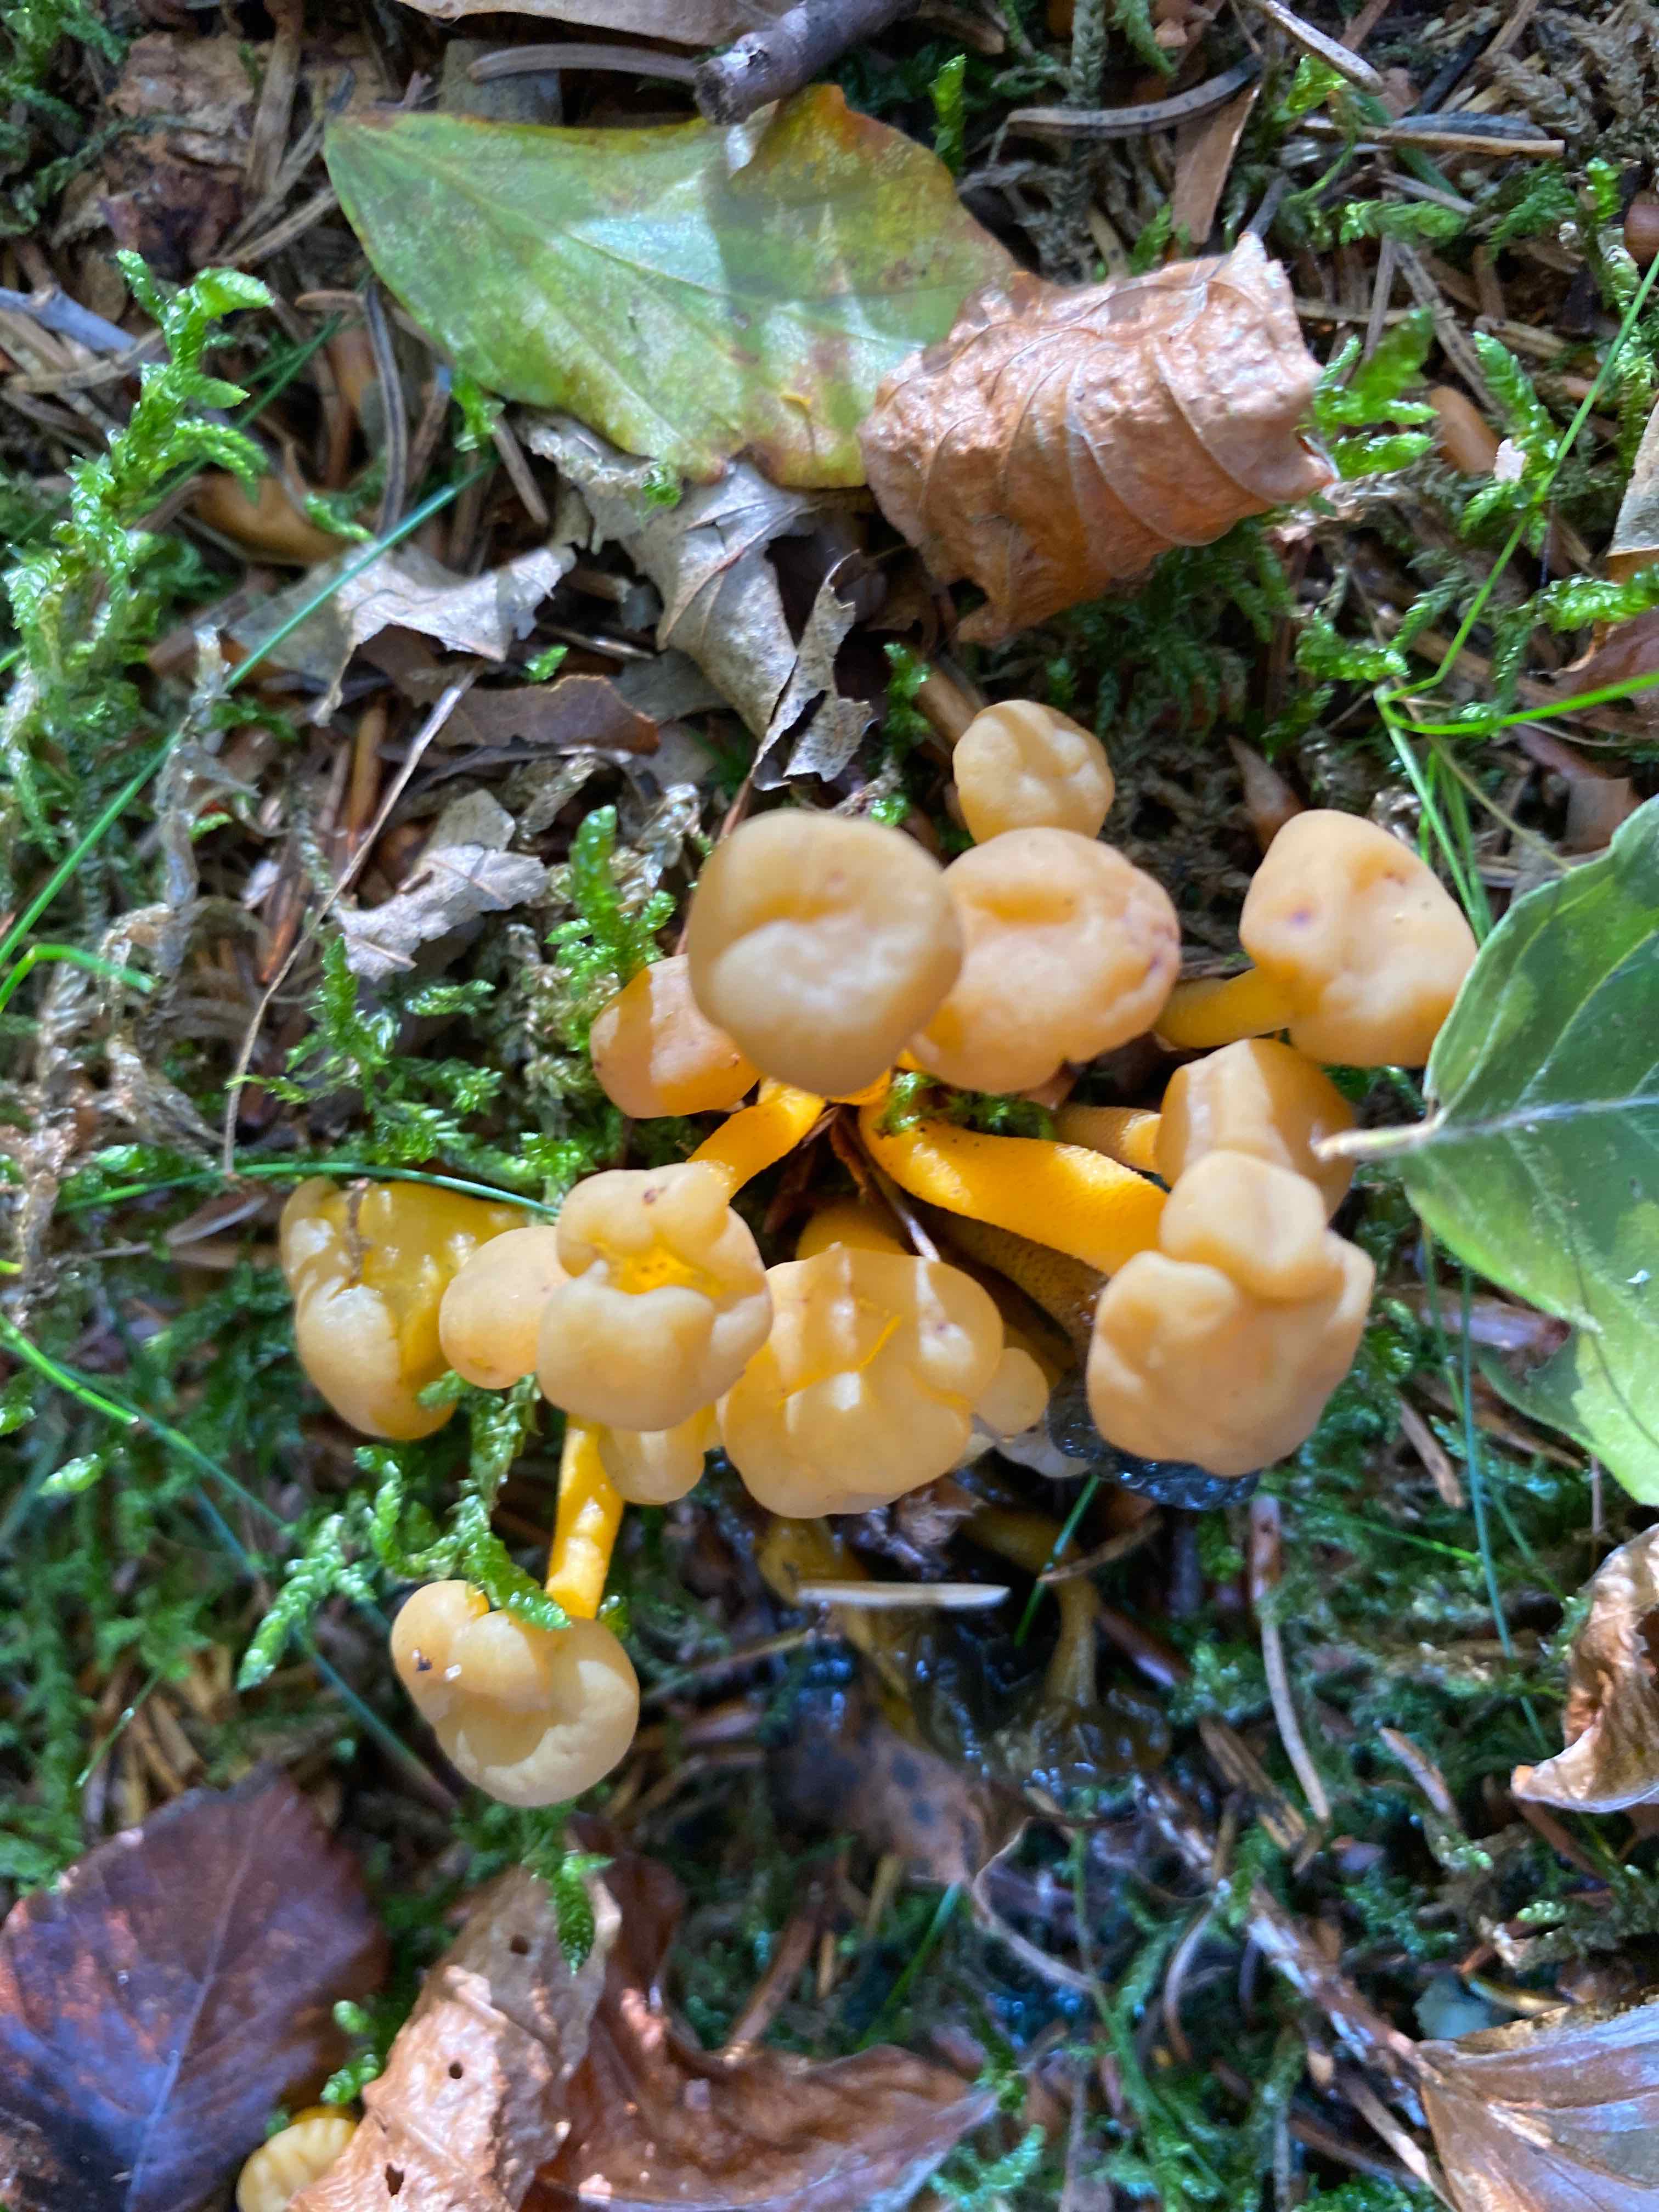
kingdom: Fungi
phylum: Ascomycota
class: Leotiomycetes
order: Leotiales
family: Leotiaceae
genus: Leotia
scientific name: Leotia lubrica
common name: ravsvamp
